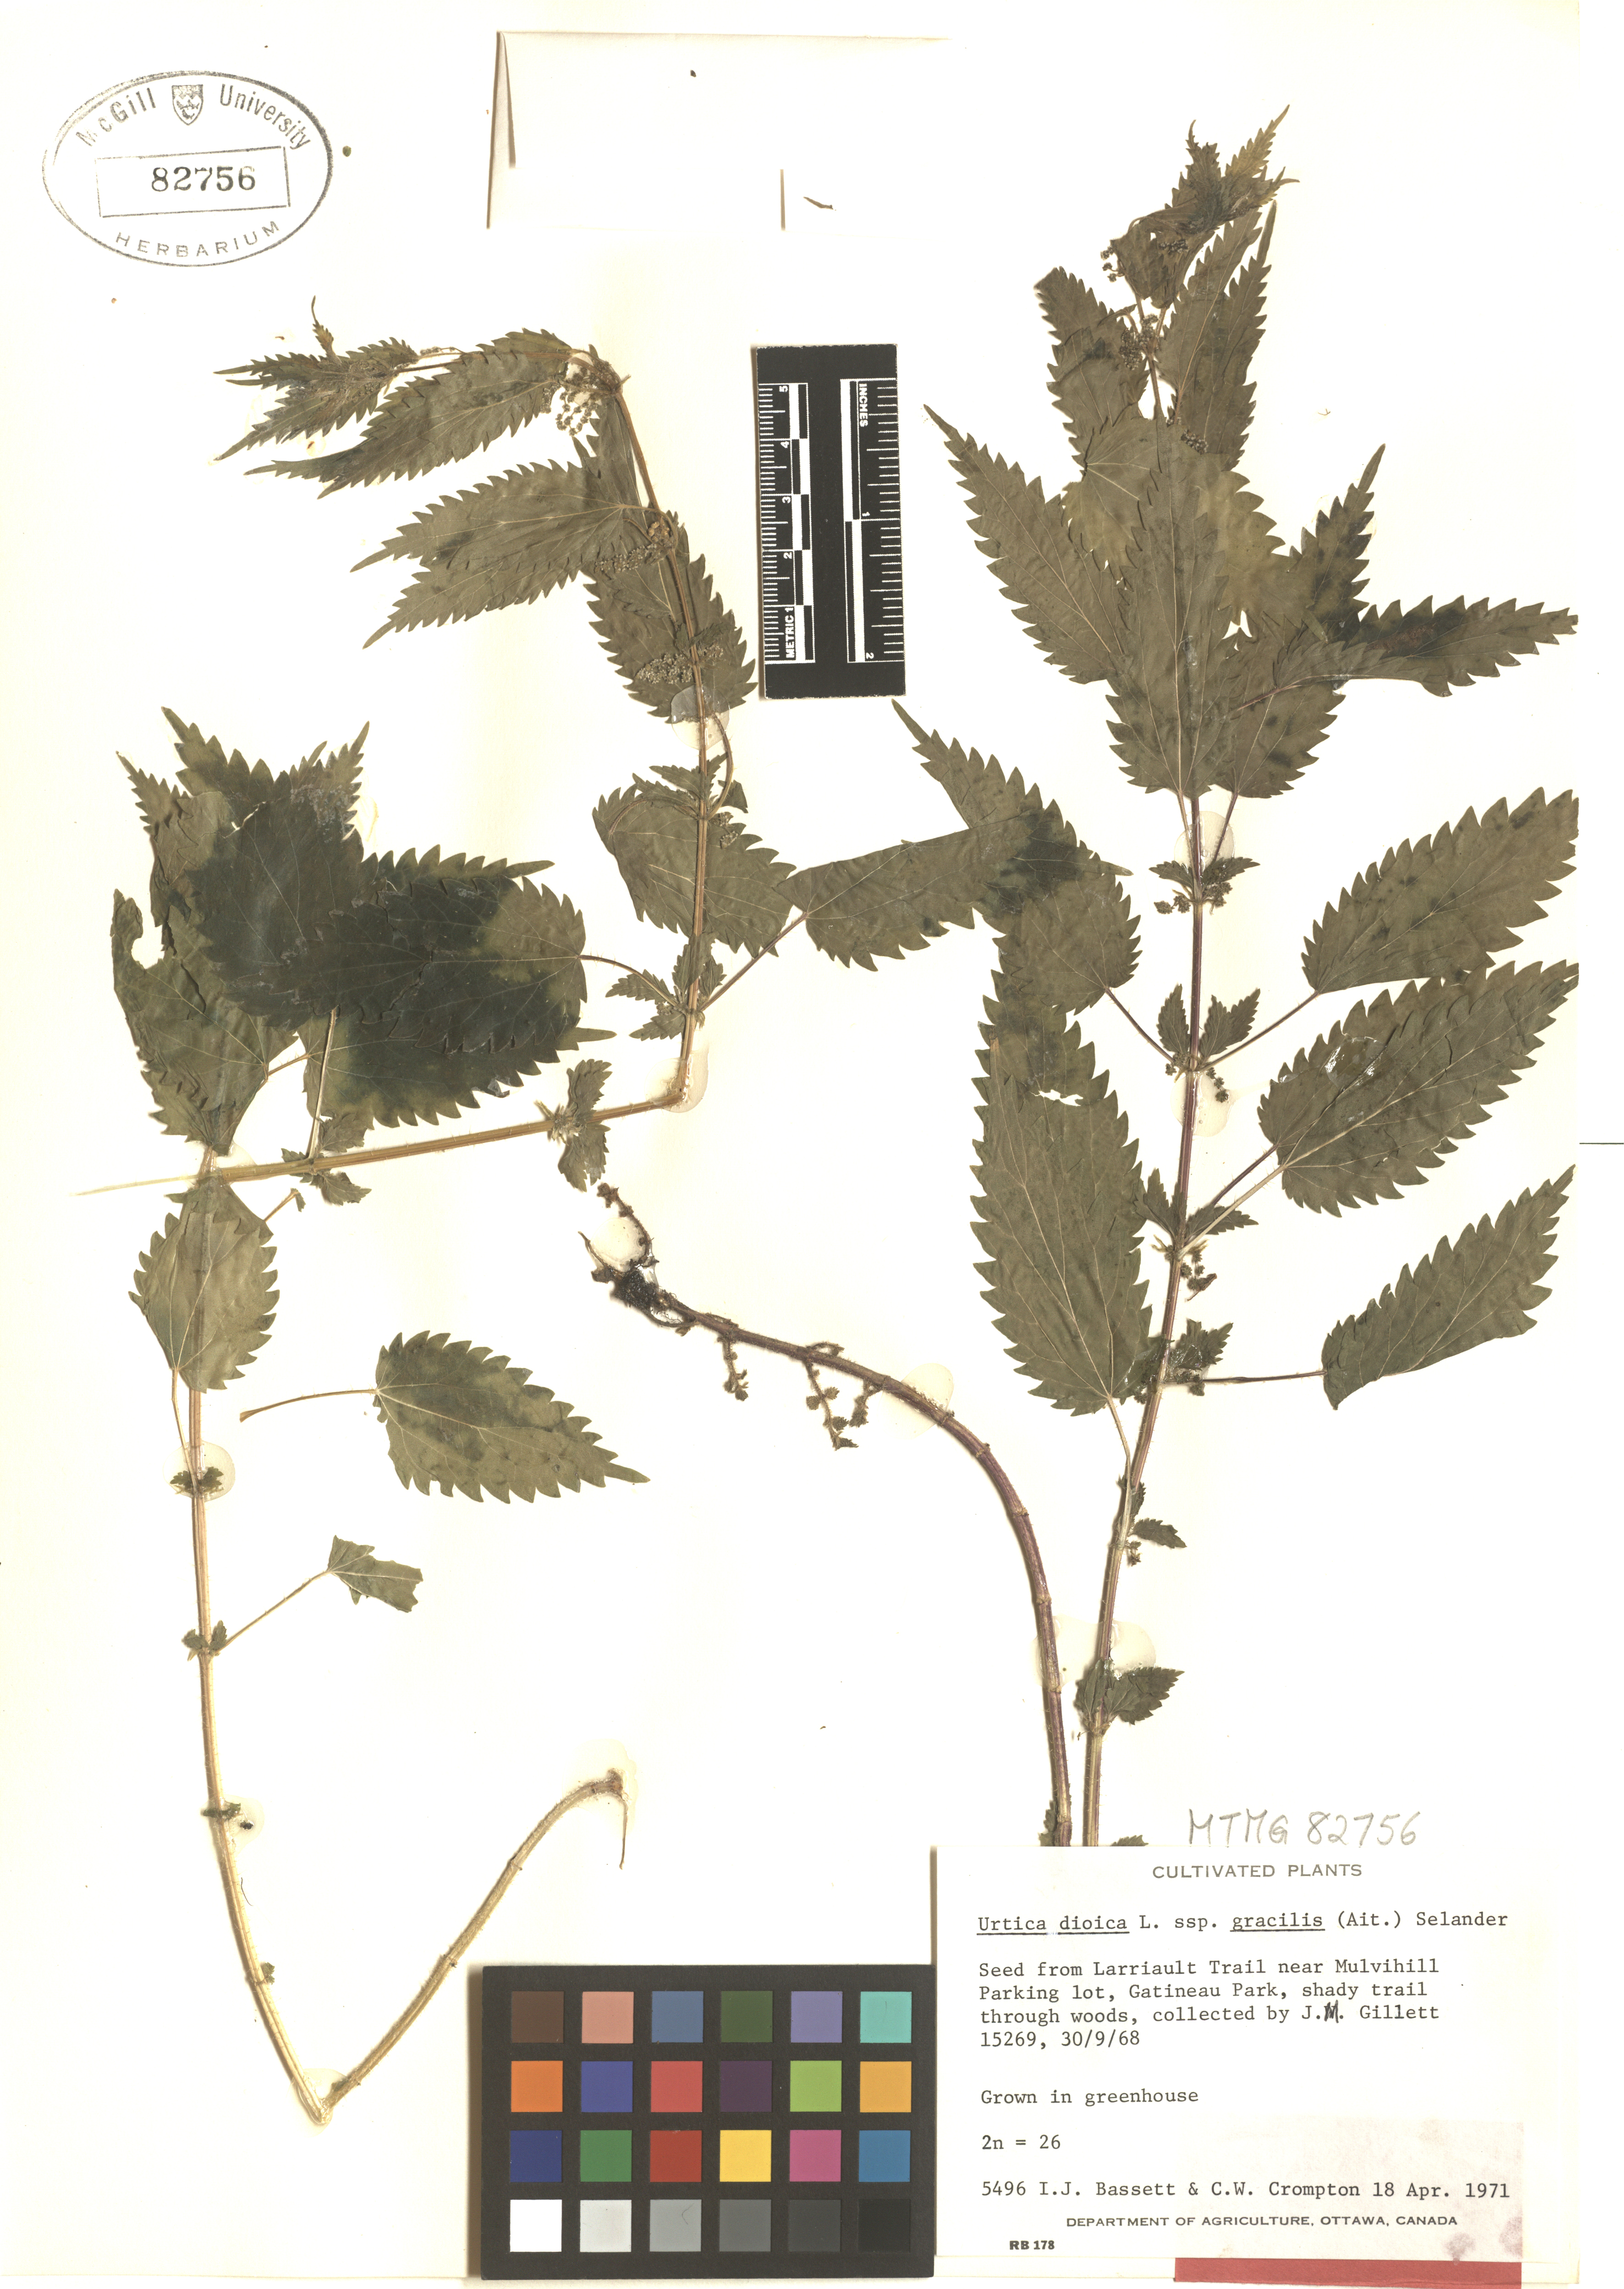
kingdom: Plantae
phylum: Tracheophyta
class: Magnoliopsida
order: Rosales
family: Urticaceae
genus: Urtica
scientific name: Urtica gracilis
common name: Slender stinging nettle
